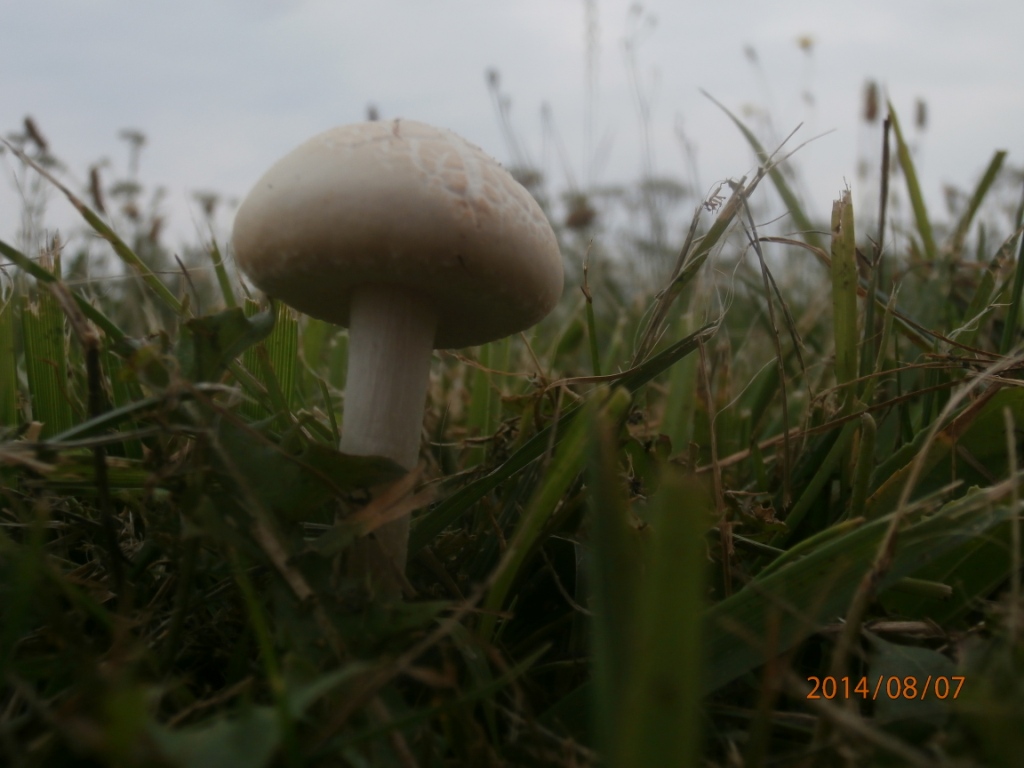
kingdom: Fungi
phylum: Basidiomycota
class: Agaricomycetes
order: Agaricales
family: Strophariaceae
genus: Agrocybe
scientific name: Agrocybe dura
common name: fastkødet agerhat
